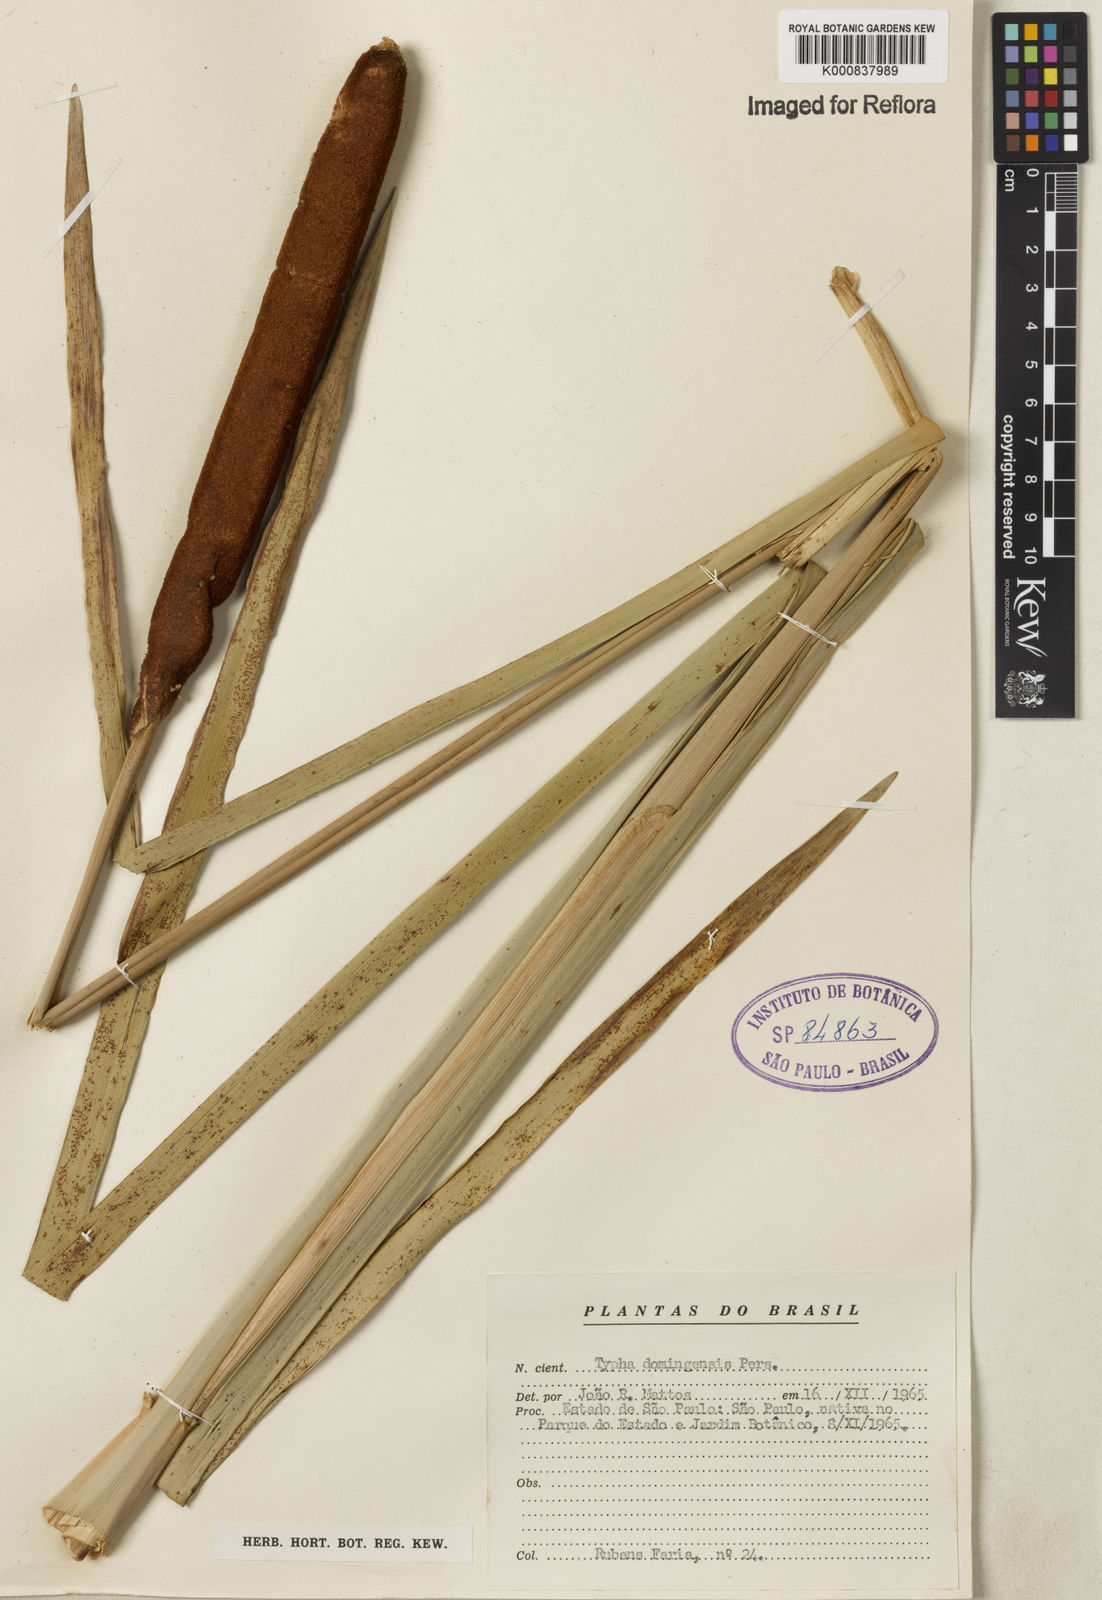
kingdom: Plantae
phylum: Tracheophyta
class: Liliopsida
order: Poales
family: Typhaceae
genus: Typha
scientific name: Typha
